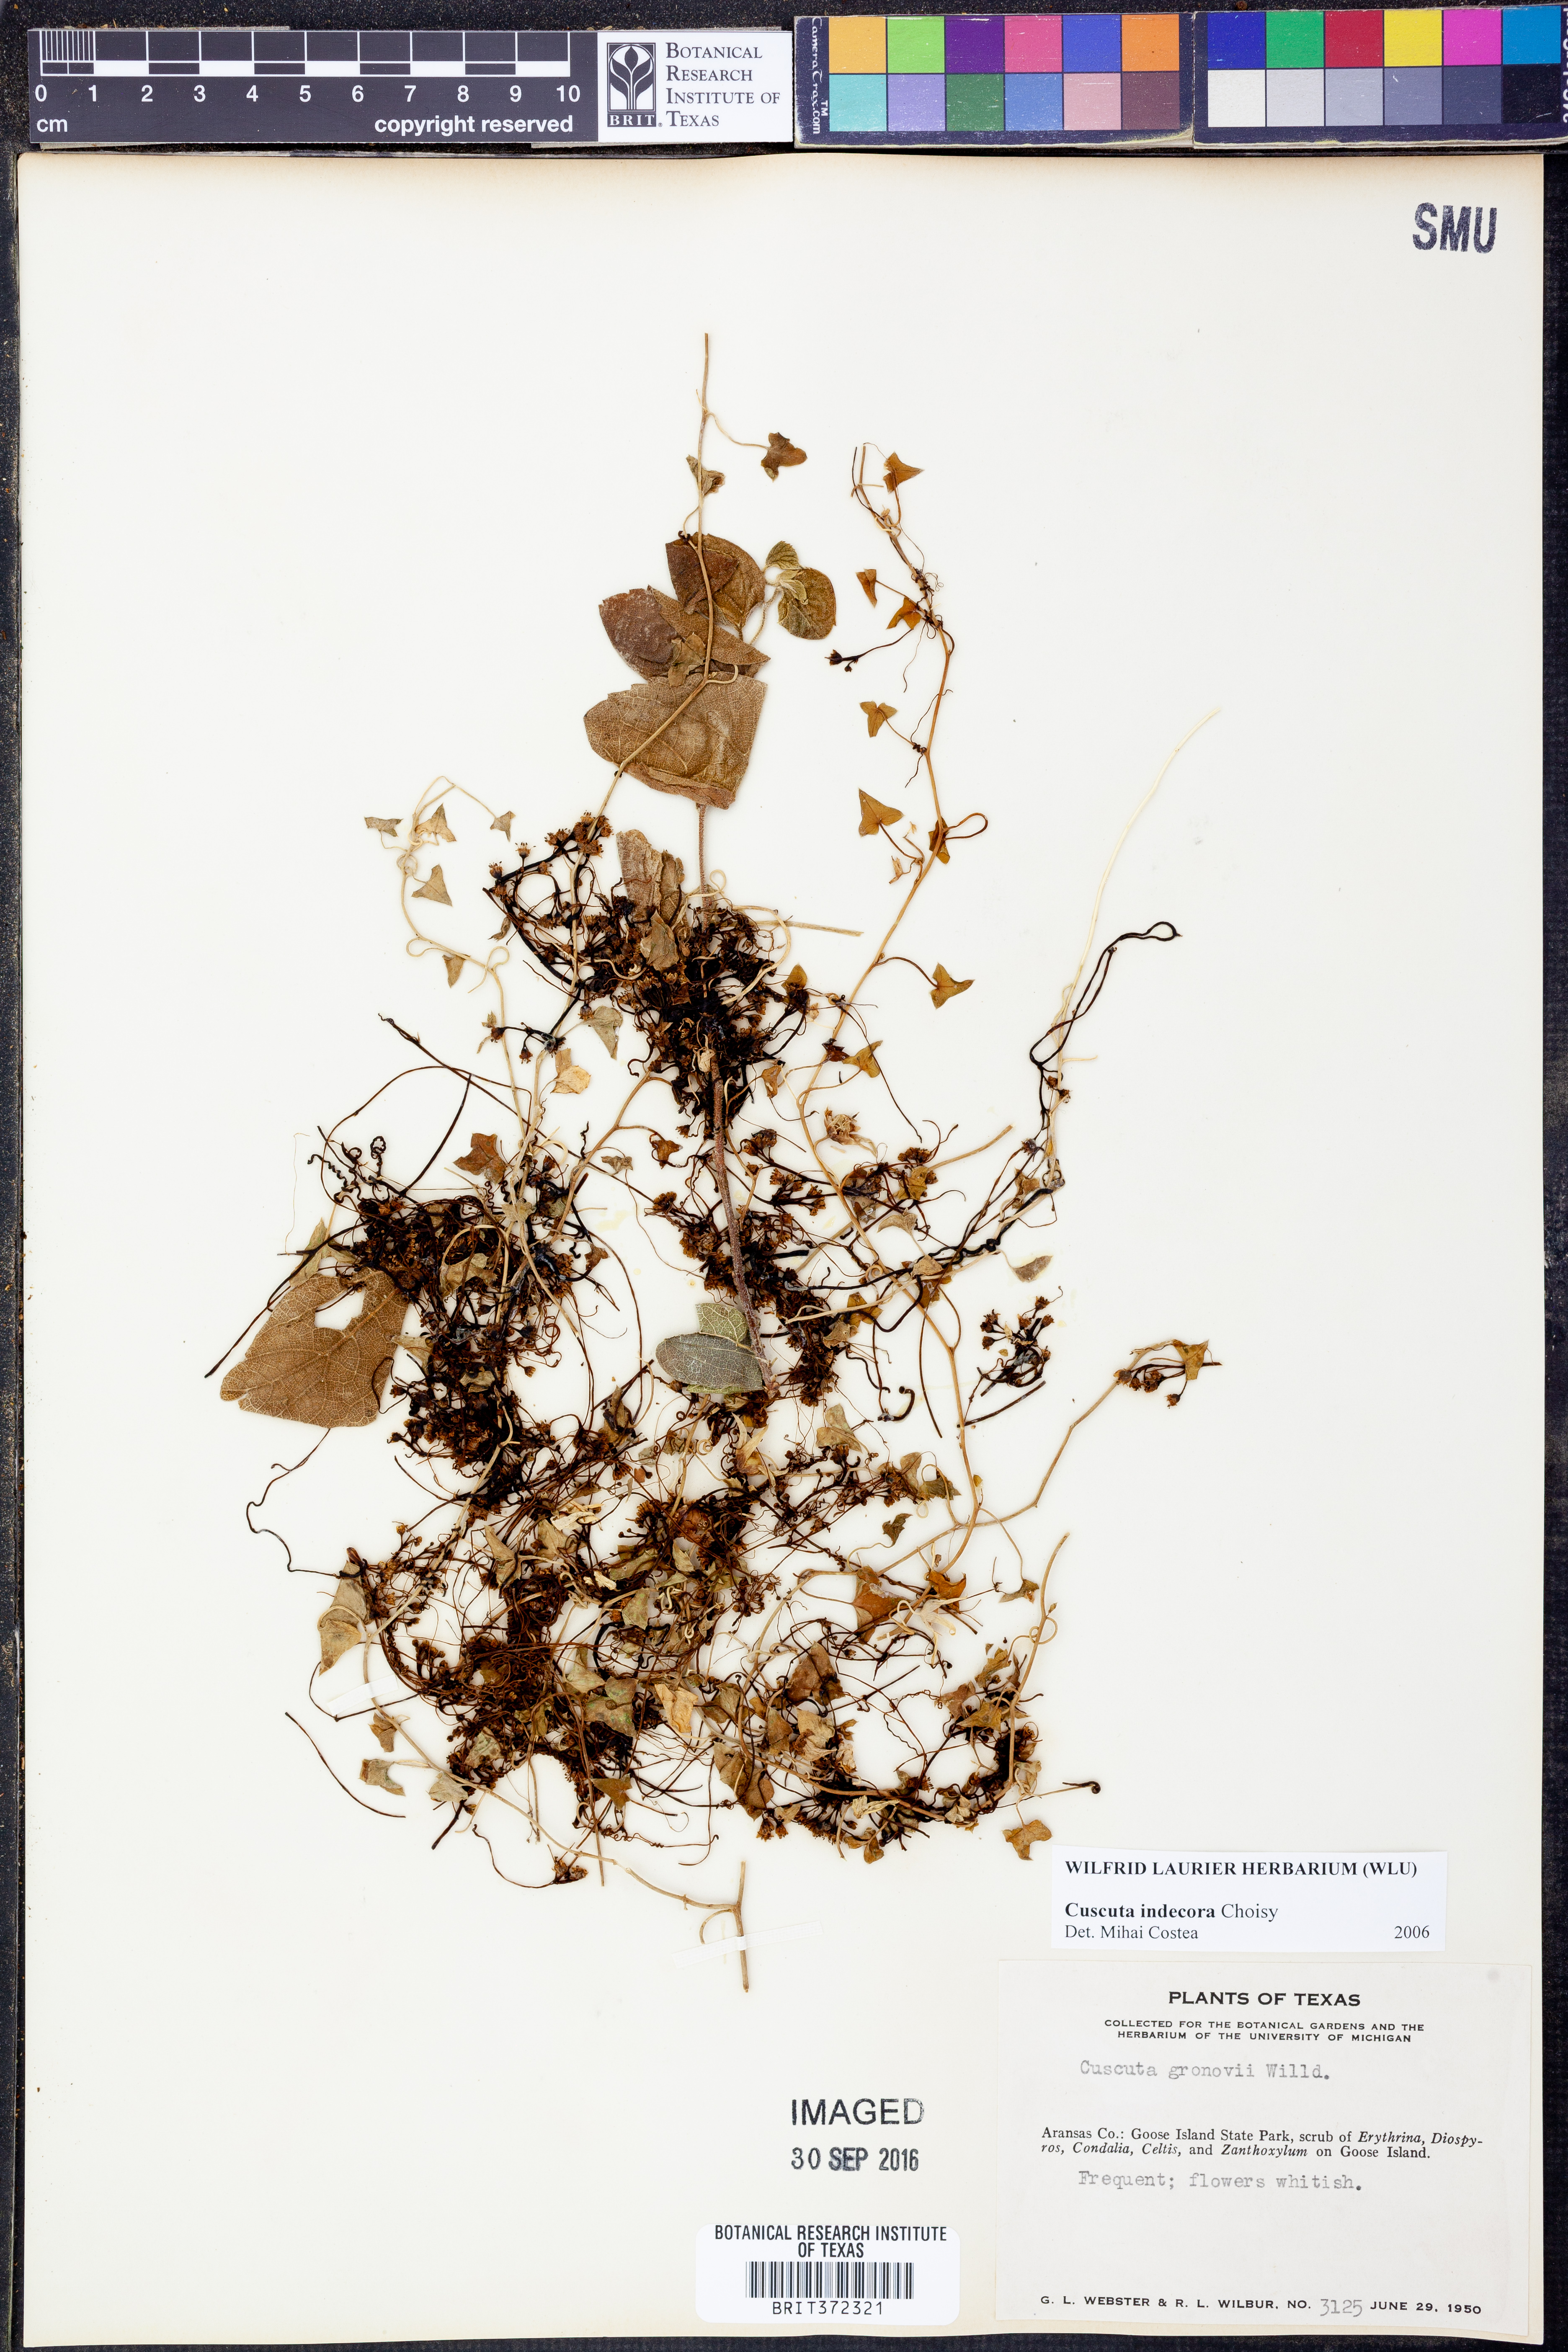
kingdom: Plantae
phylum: Tracheophyta
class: Magnoliopsida
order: Solanales
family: Convolvulaceae
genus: Cuscuta
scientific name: Cuscuta indecora
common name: Large-seed dodder
